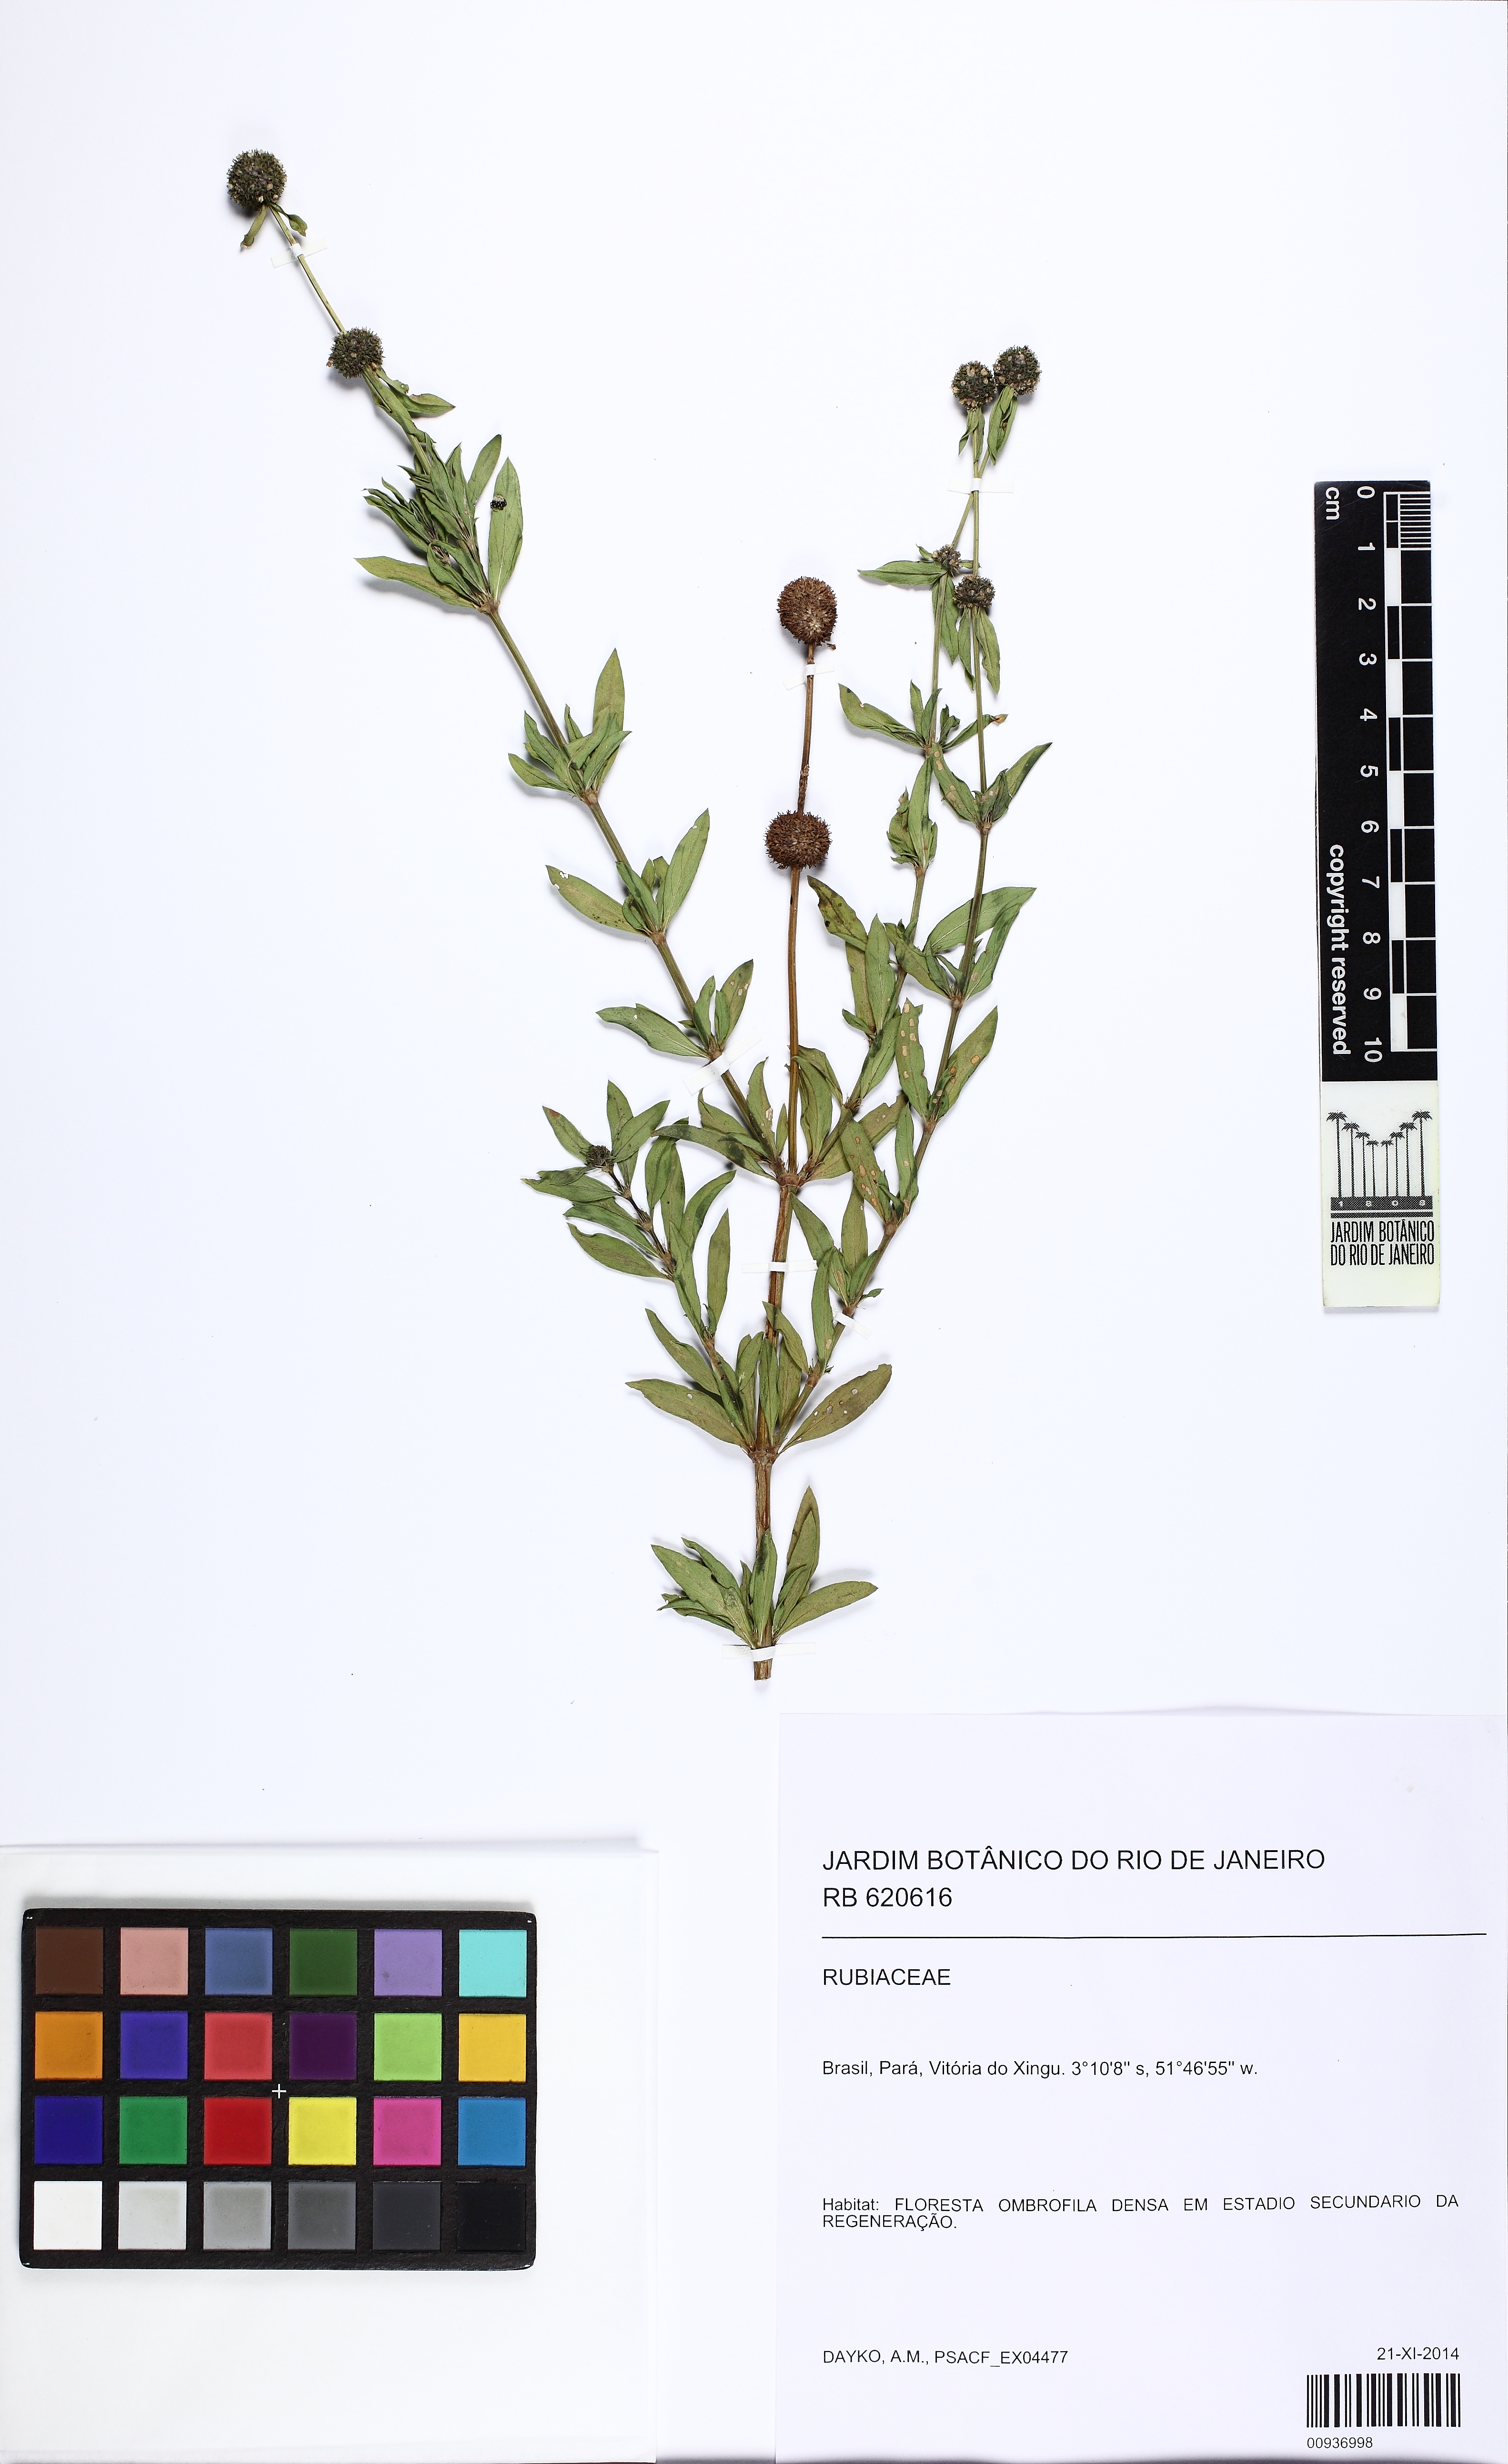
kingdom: Plantae
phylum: Tracheophyta
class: Magnoliopsida
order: Gentianales
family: Rubiaceae
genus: Spermacoce
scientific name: Spermacoce verticillata
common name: Shrubby false buttonweed
